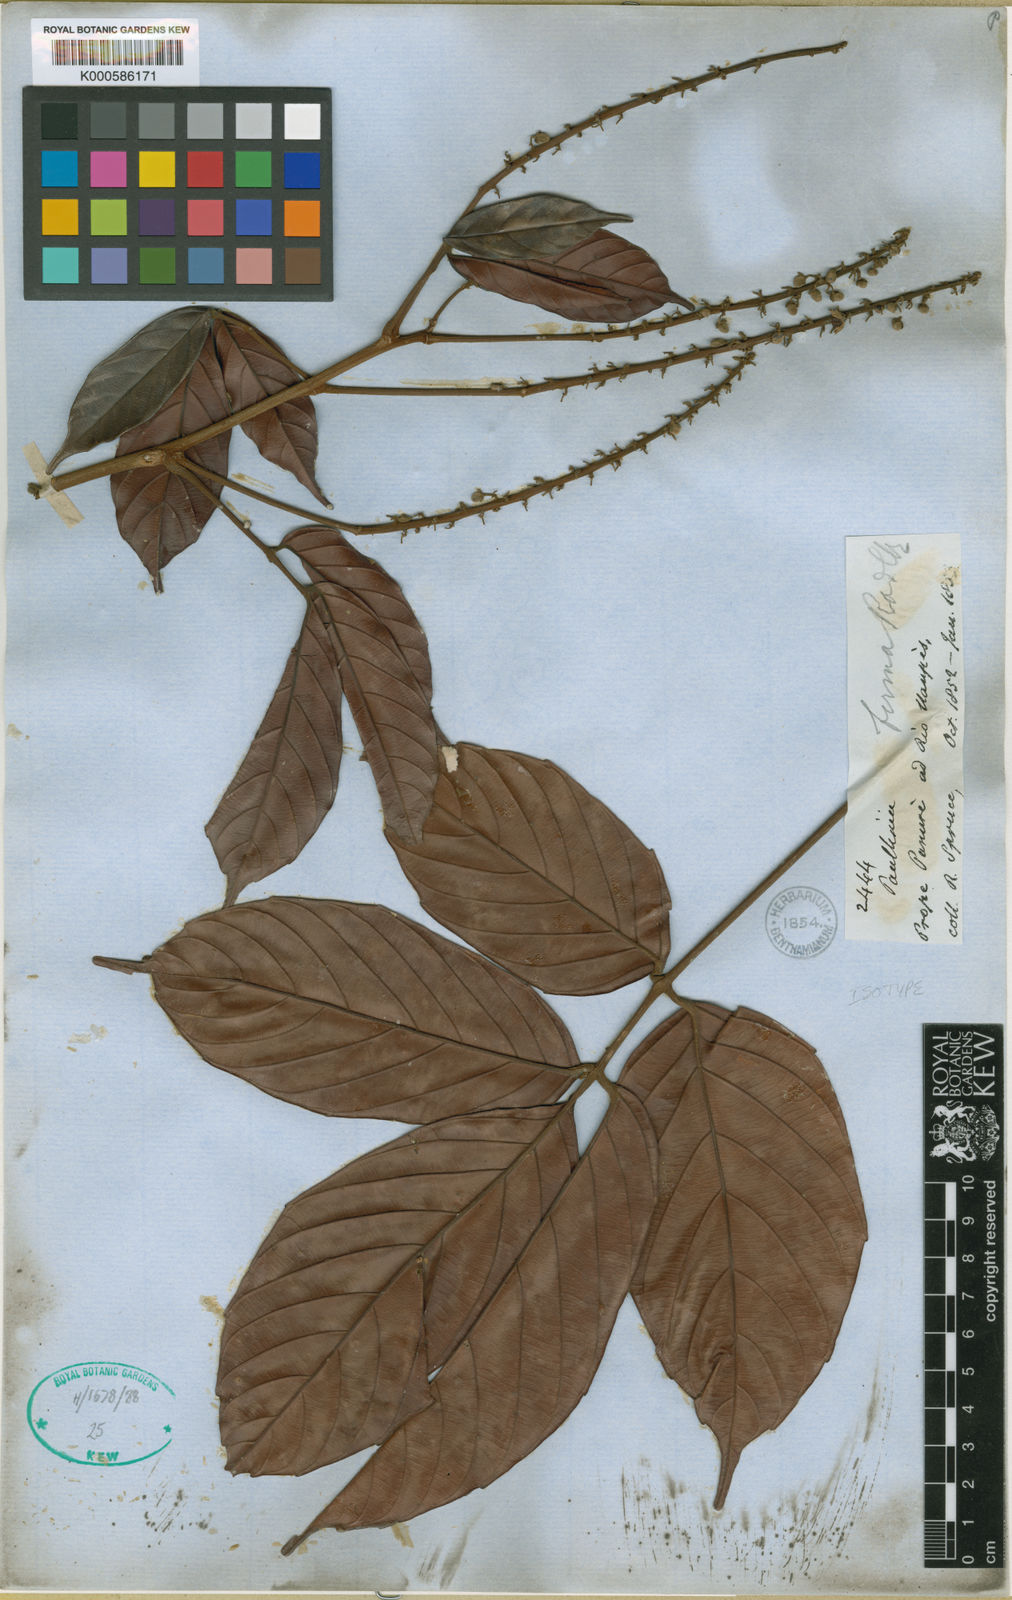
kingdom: Plantae
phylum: Tracheophyta
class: Magnoliopsida
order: Sapindales
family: Sapindaceae
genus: Paullinia
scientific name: Paullinia firma
